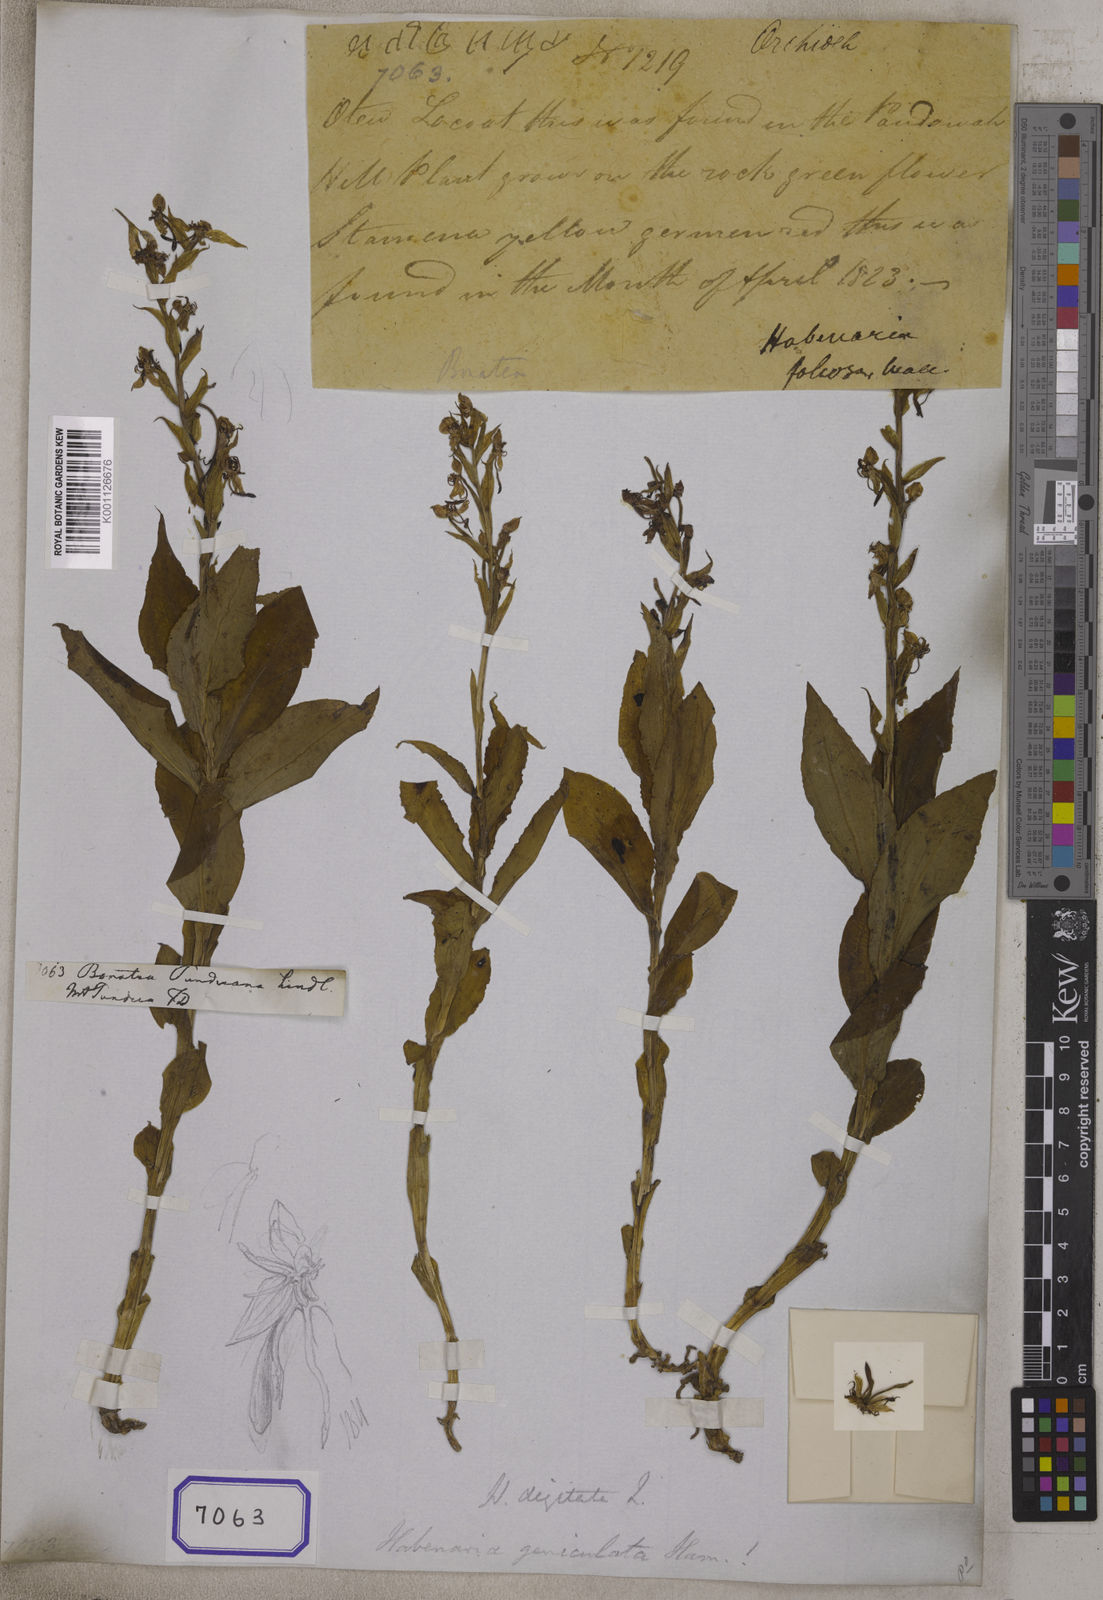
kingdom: Plantae
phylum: Tracheophyta
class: Liliopsida
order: Asparagales
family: Orchidaceae
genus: Bonatea
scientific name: Bonatea
